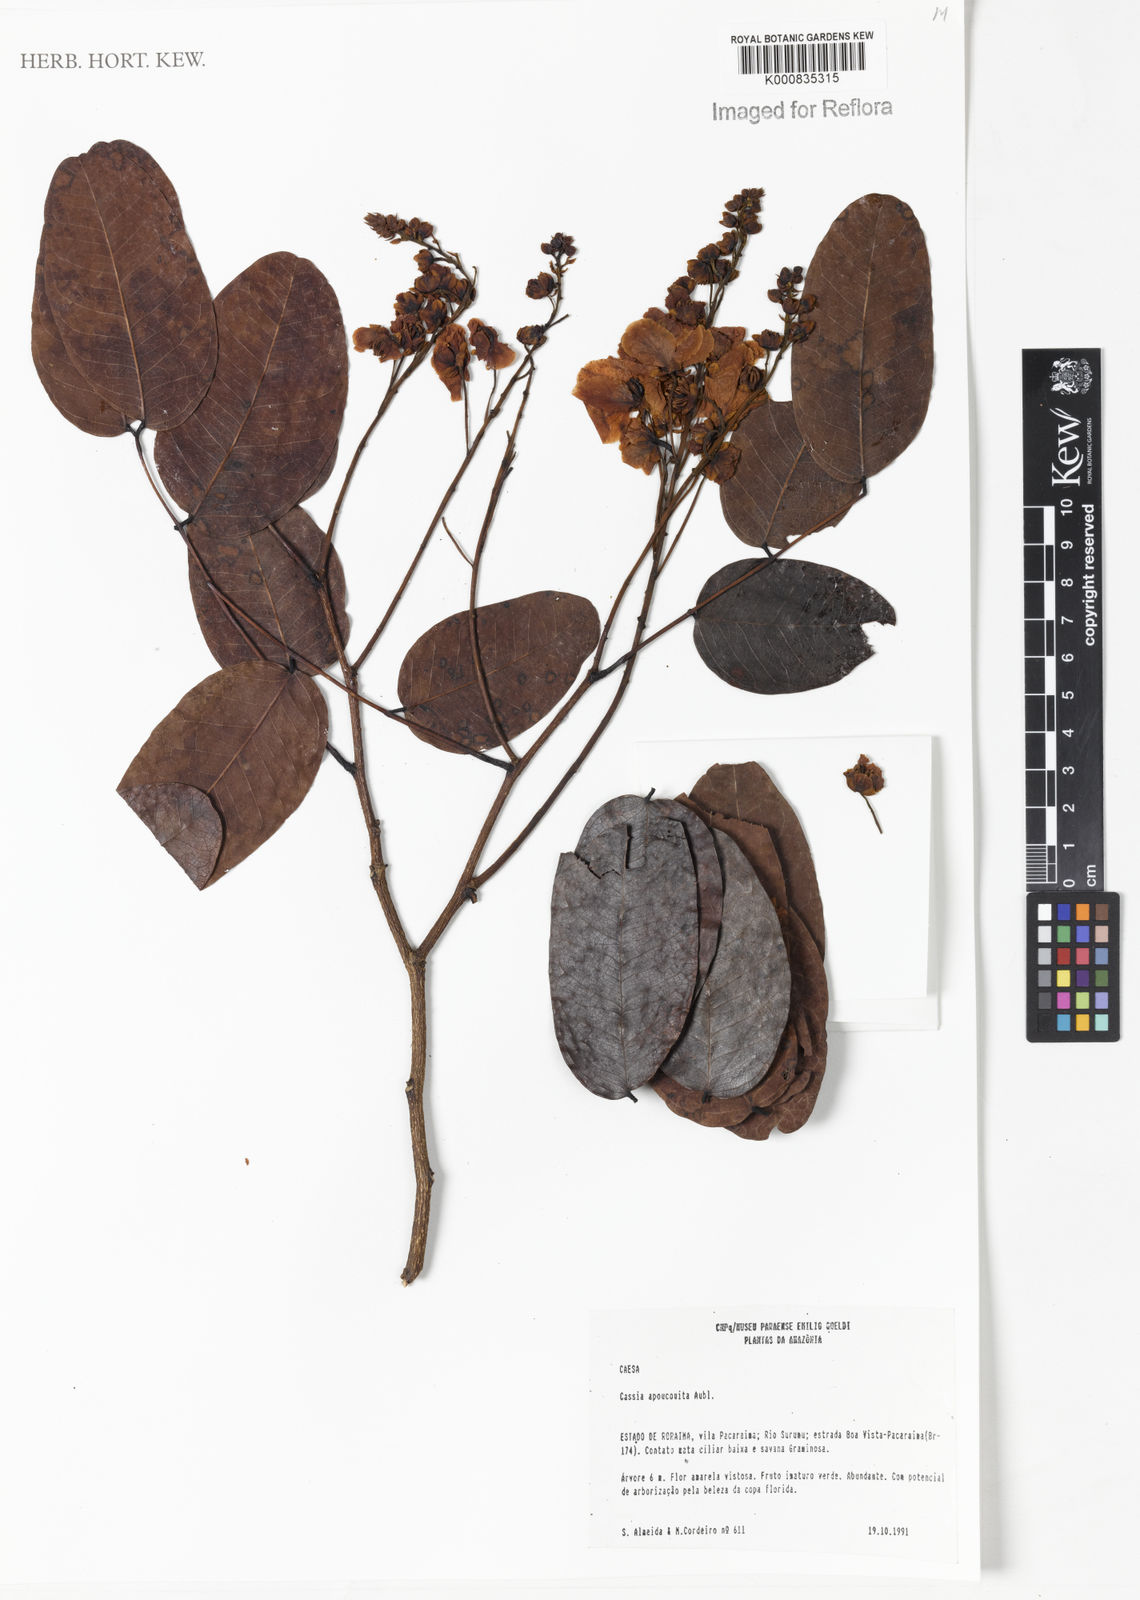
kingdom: Plantae
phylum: Tracheophyta
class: Magnoliopsida
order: Fabales
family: Fabaceae
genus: Chamaecrista
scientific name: Chamaecrista apoucouita
